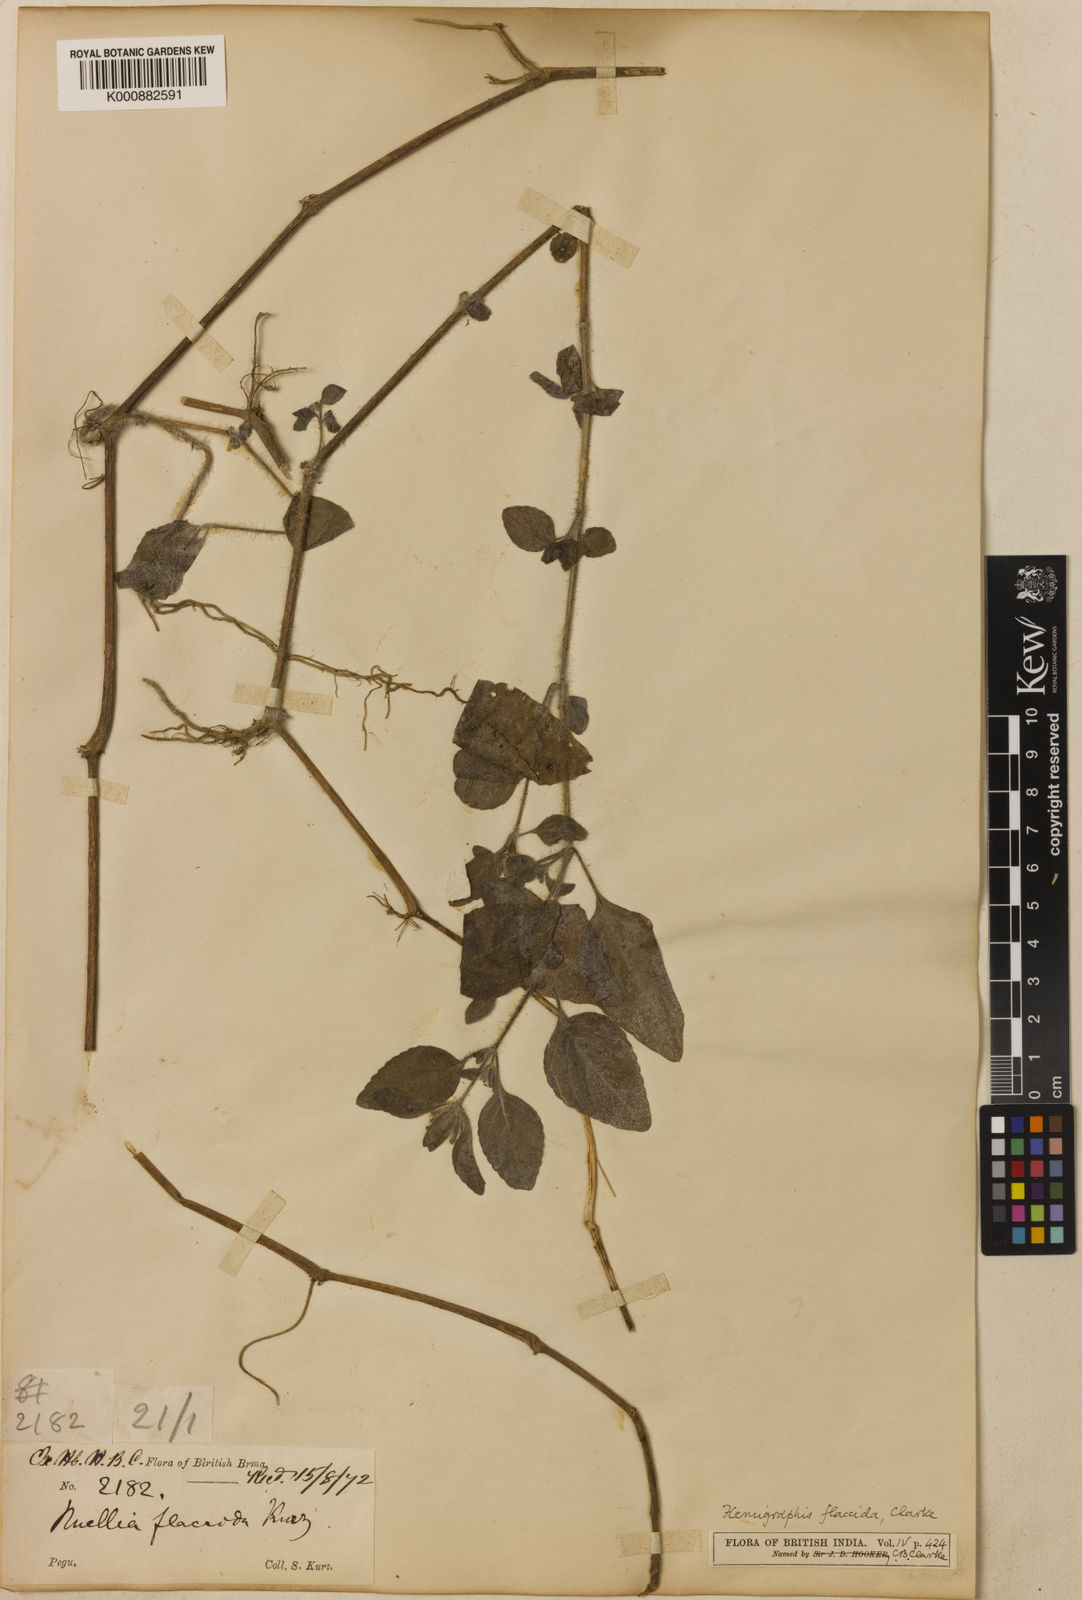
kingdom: Plantae
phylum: Tracheophyta
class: Magnoliopsida
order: Lamiales
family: Acanthaceae
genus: Hemigraphis
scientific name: Hemigraphis flaccida
